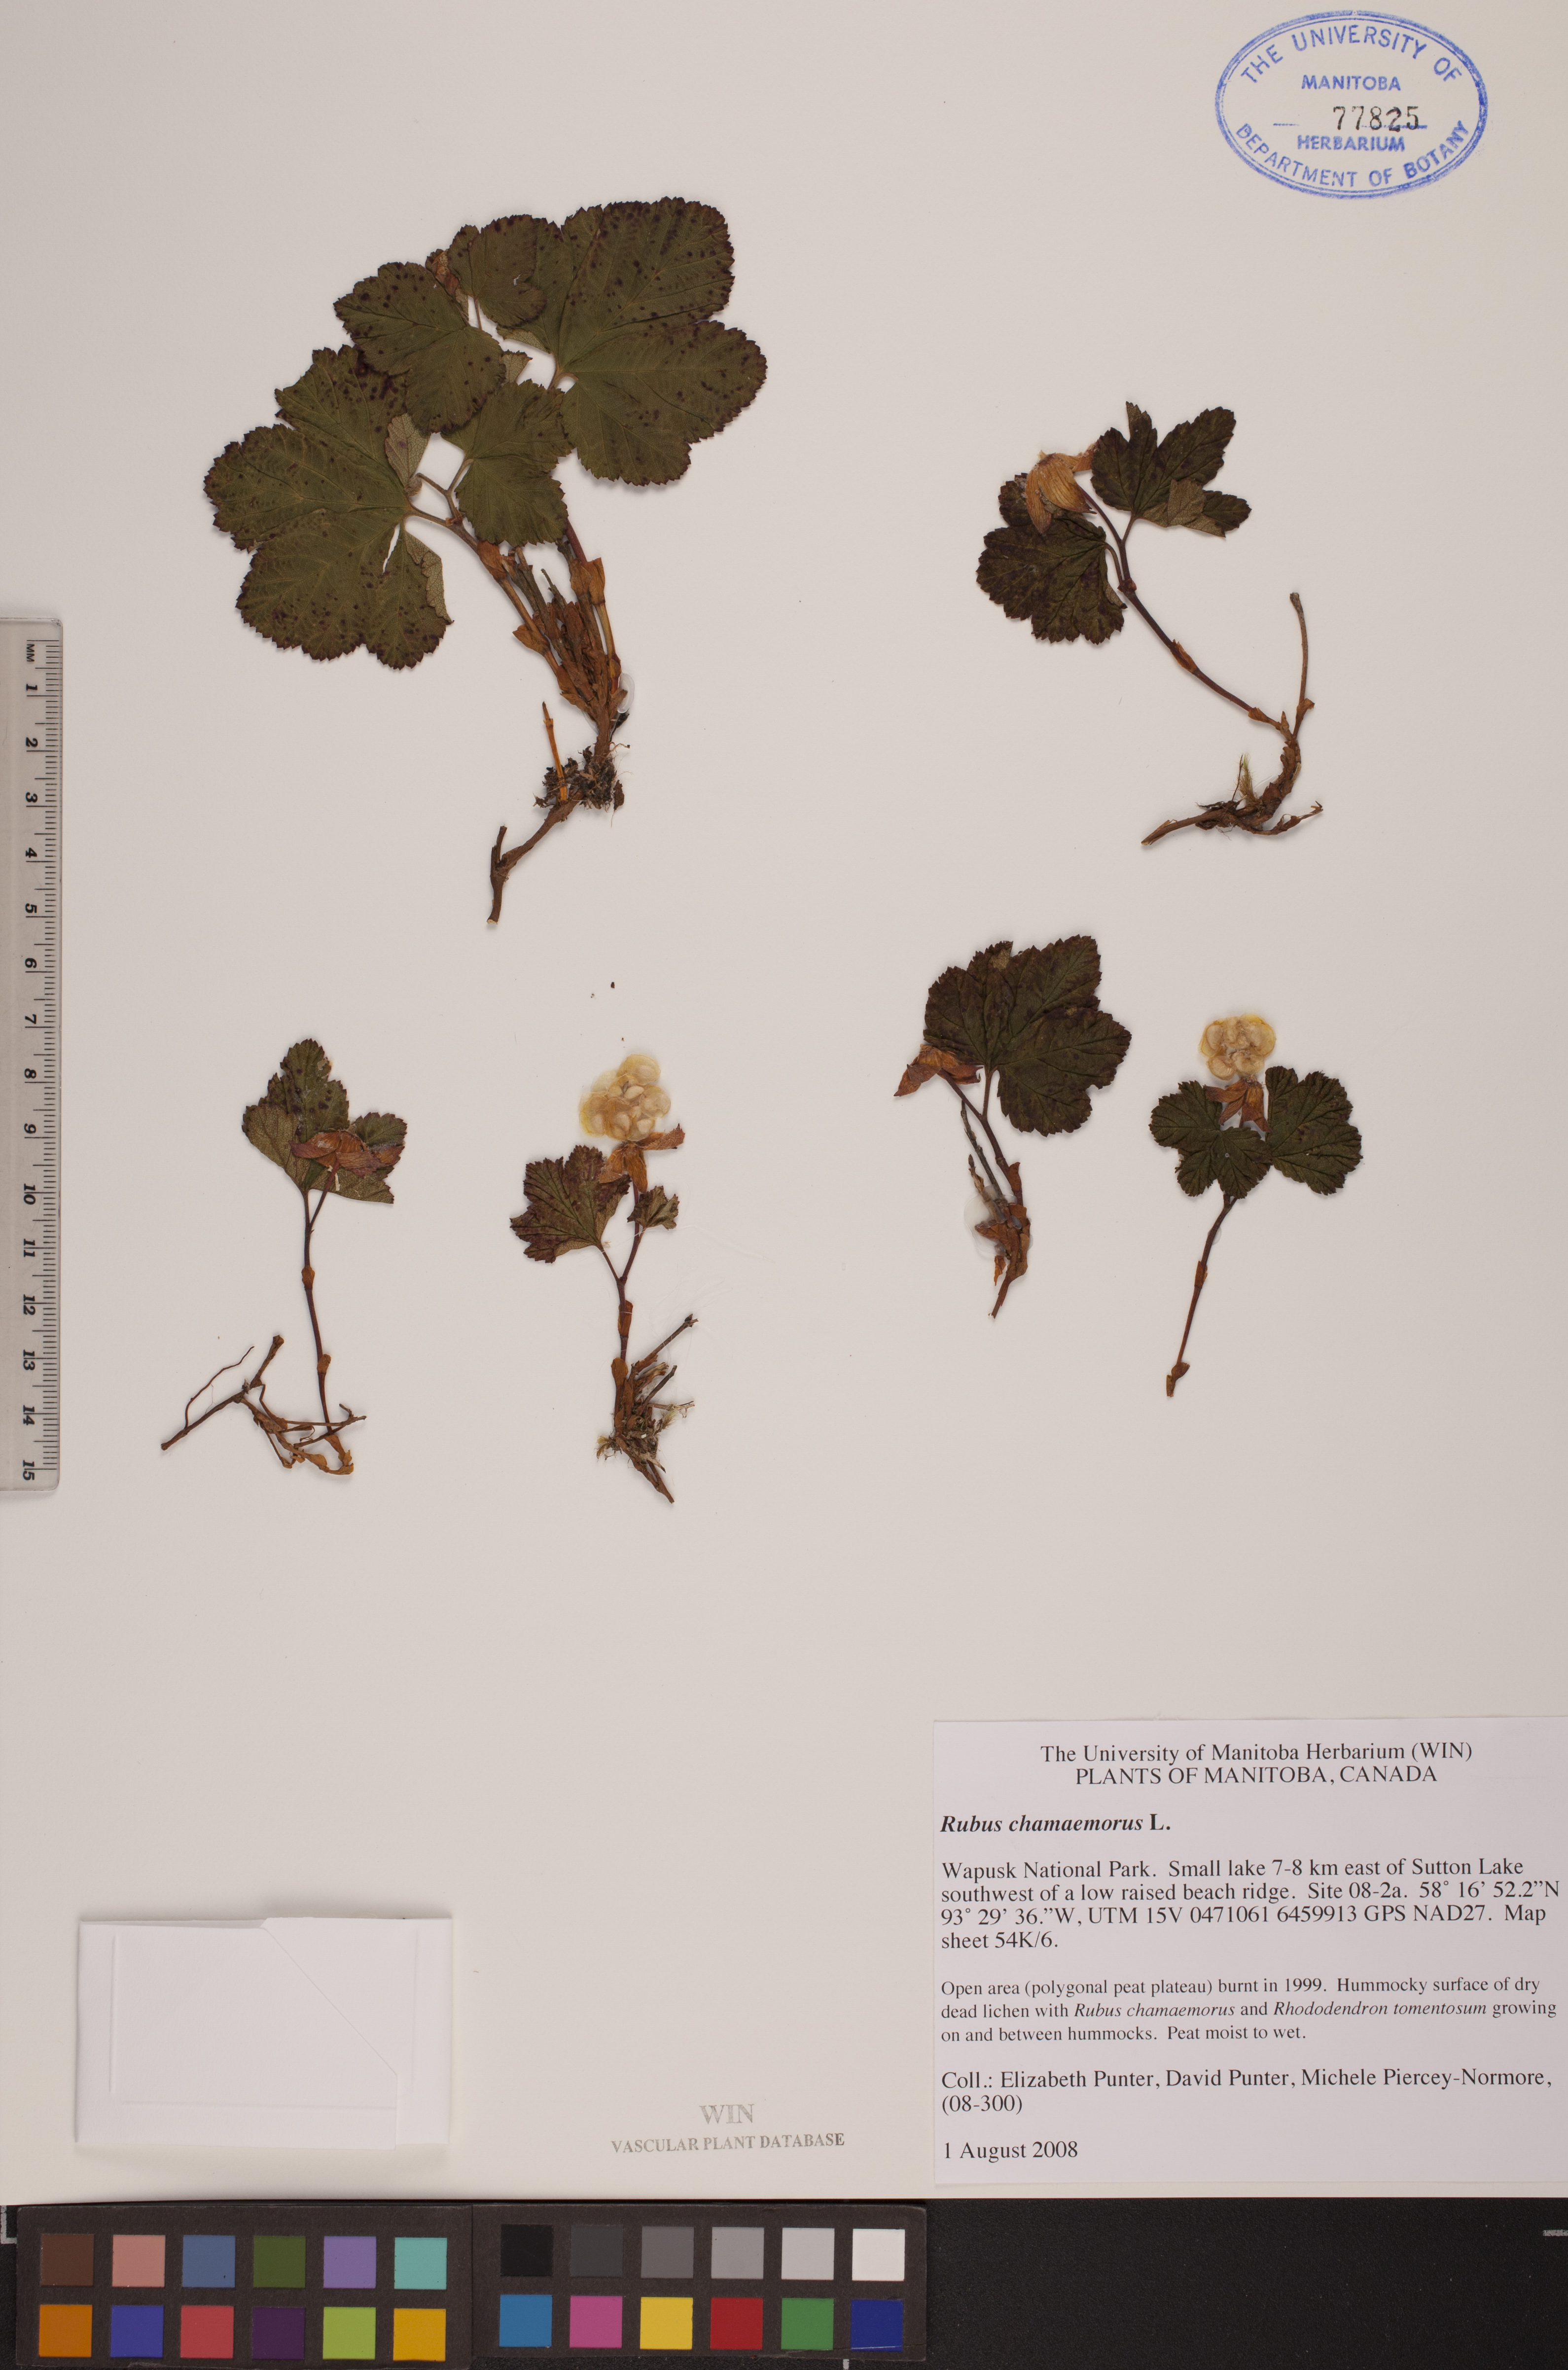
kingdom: Plantae
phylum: Tracheophyta
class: Magnoliopsida
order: Rosales
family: Rosaceae
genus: Rubus
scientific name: Rubus chamaemorus
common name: Cloudberry
